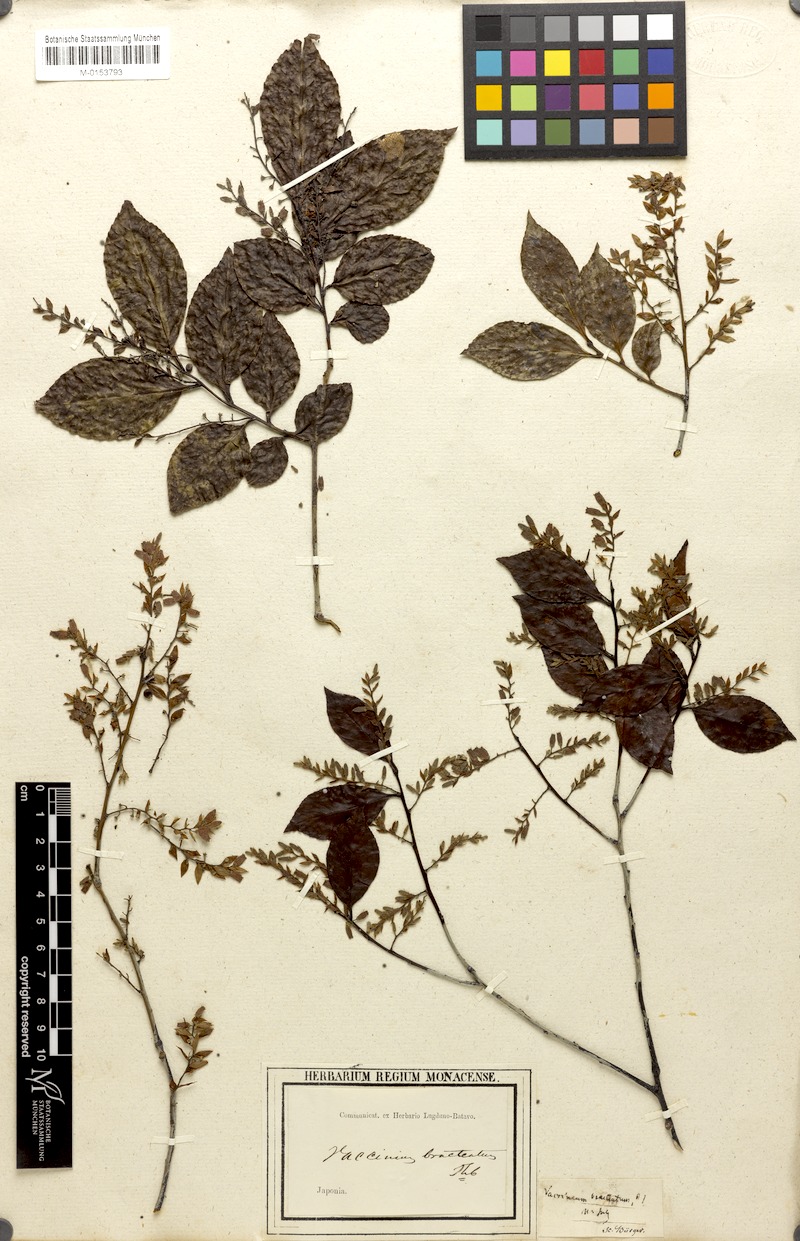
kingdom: Plantae
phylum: Tracheophyta
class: Magnoliopsida
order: Ericales
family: Ericaceae
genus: Vaccinium
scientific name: Vaccinium bracteatum
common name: Sea bilberry
